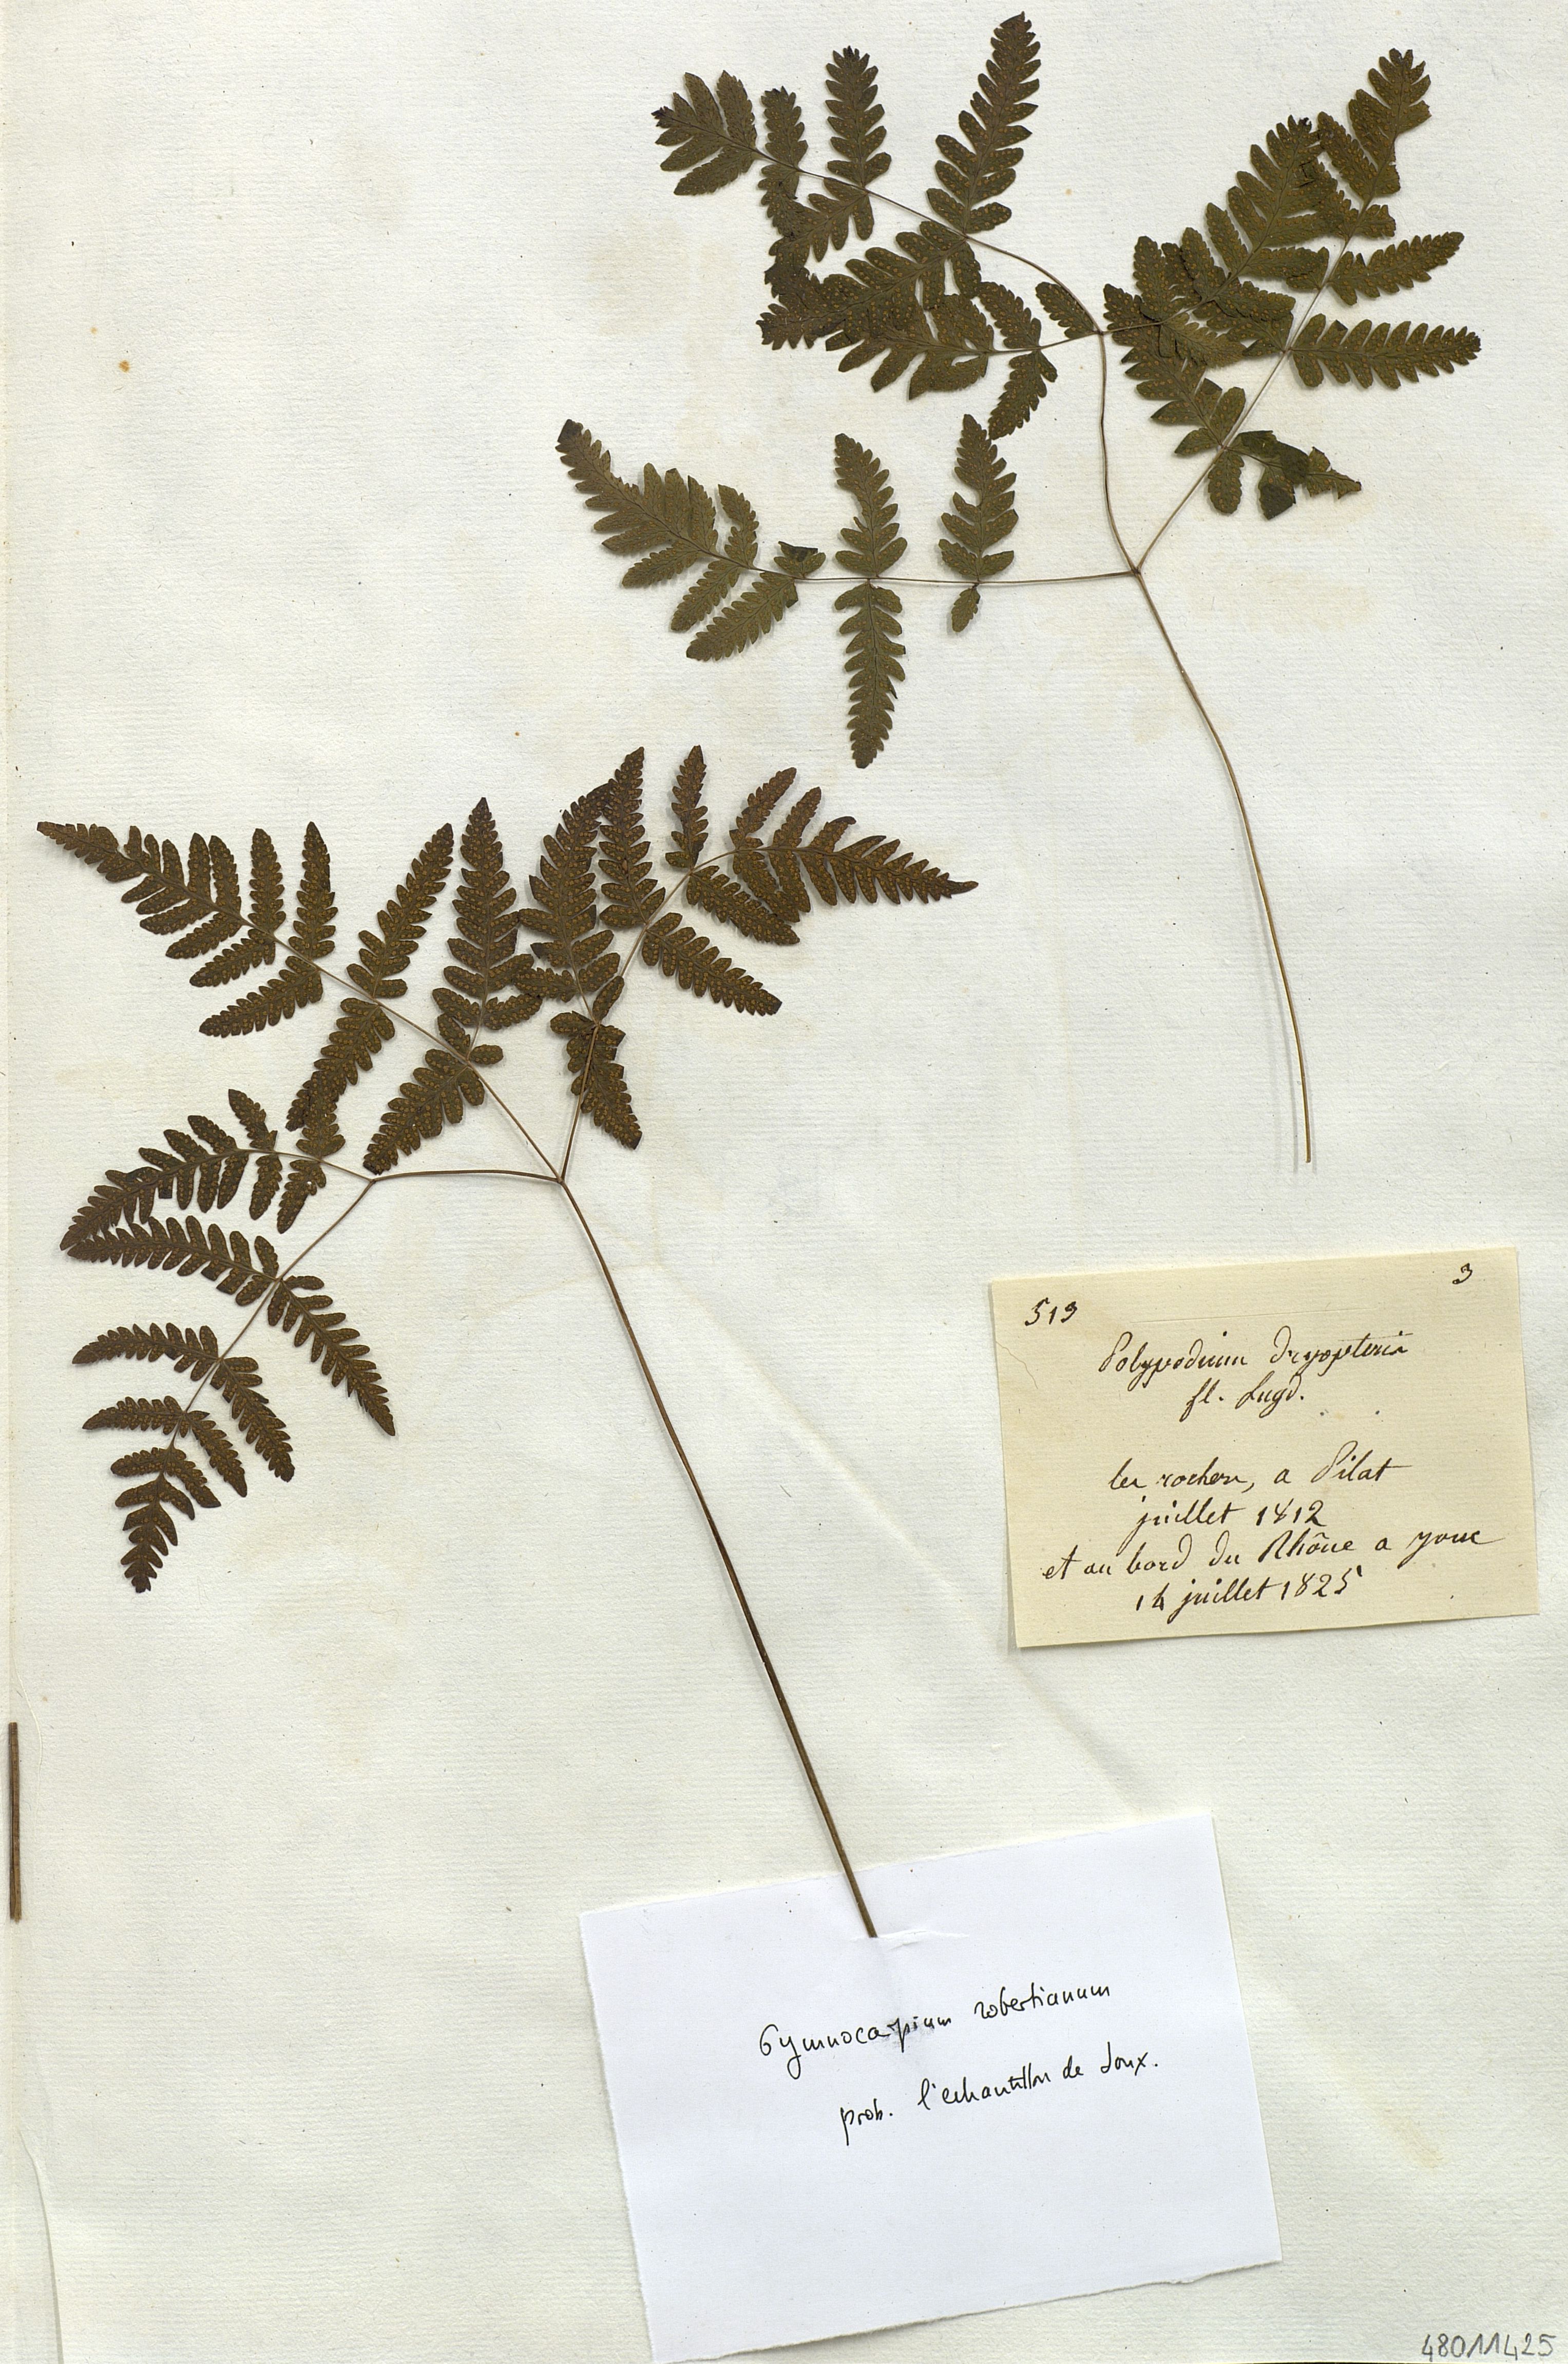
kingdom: Plantae
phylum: Tracheophyta
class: Polypodiopsida
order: Polypodiales
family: Cystopteridaceae
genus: Gymnocarpium
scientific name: Gymnocarpium dryopteris
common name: Oak fern
